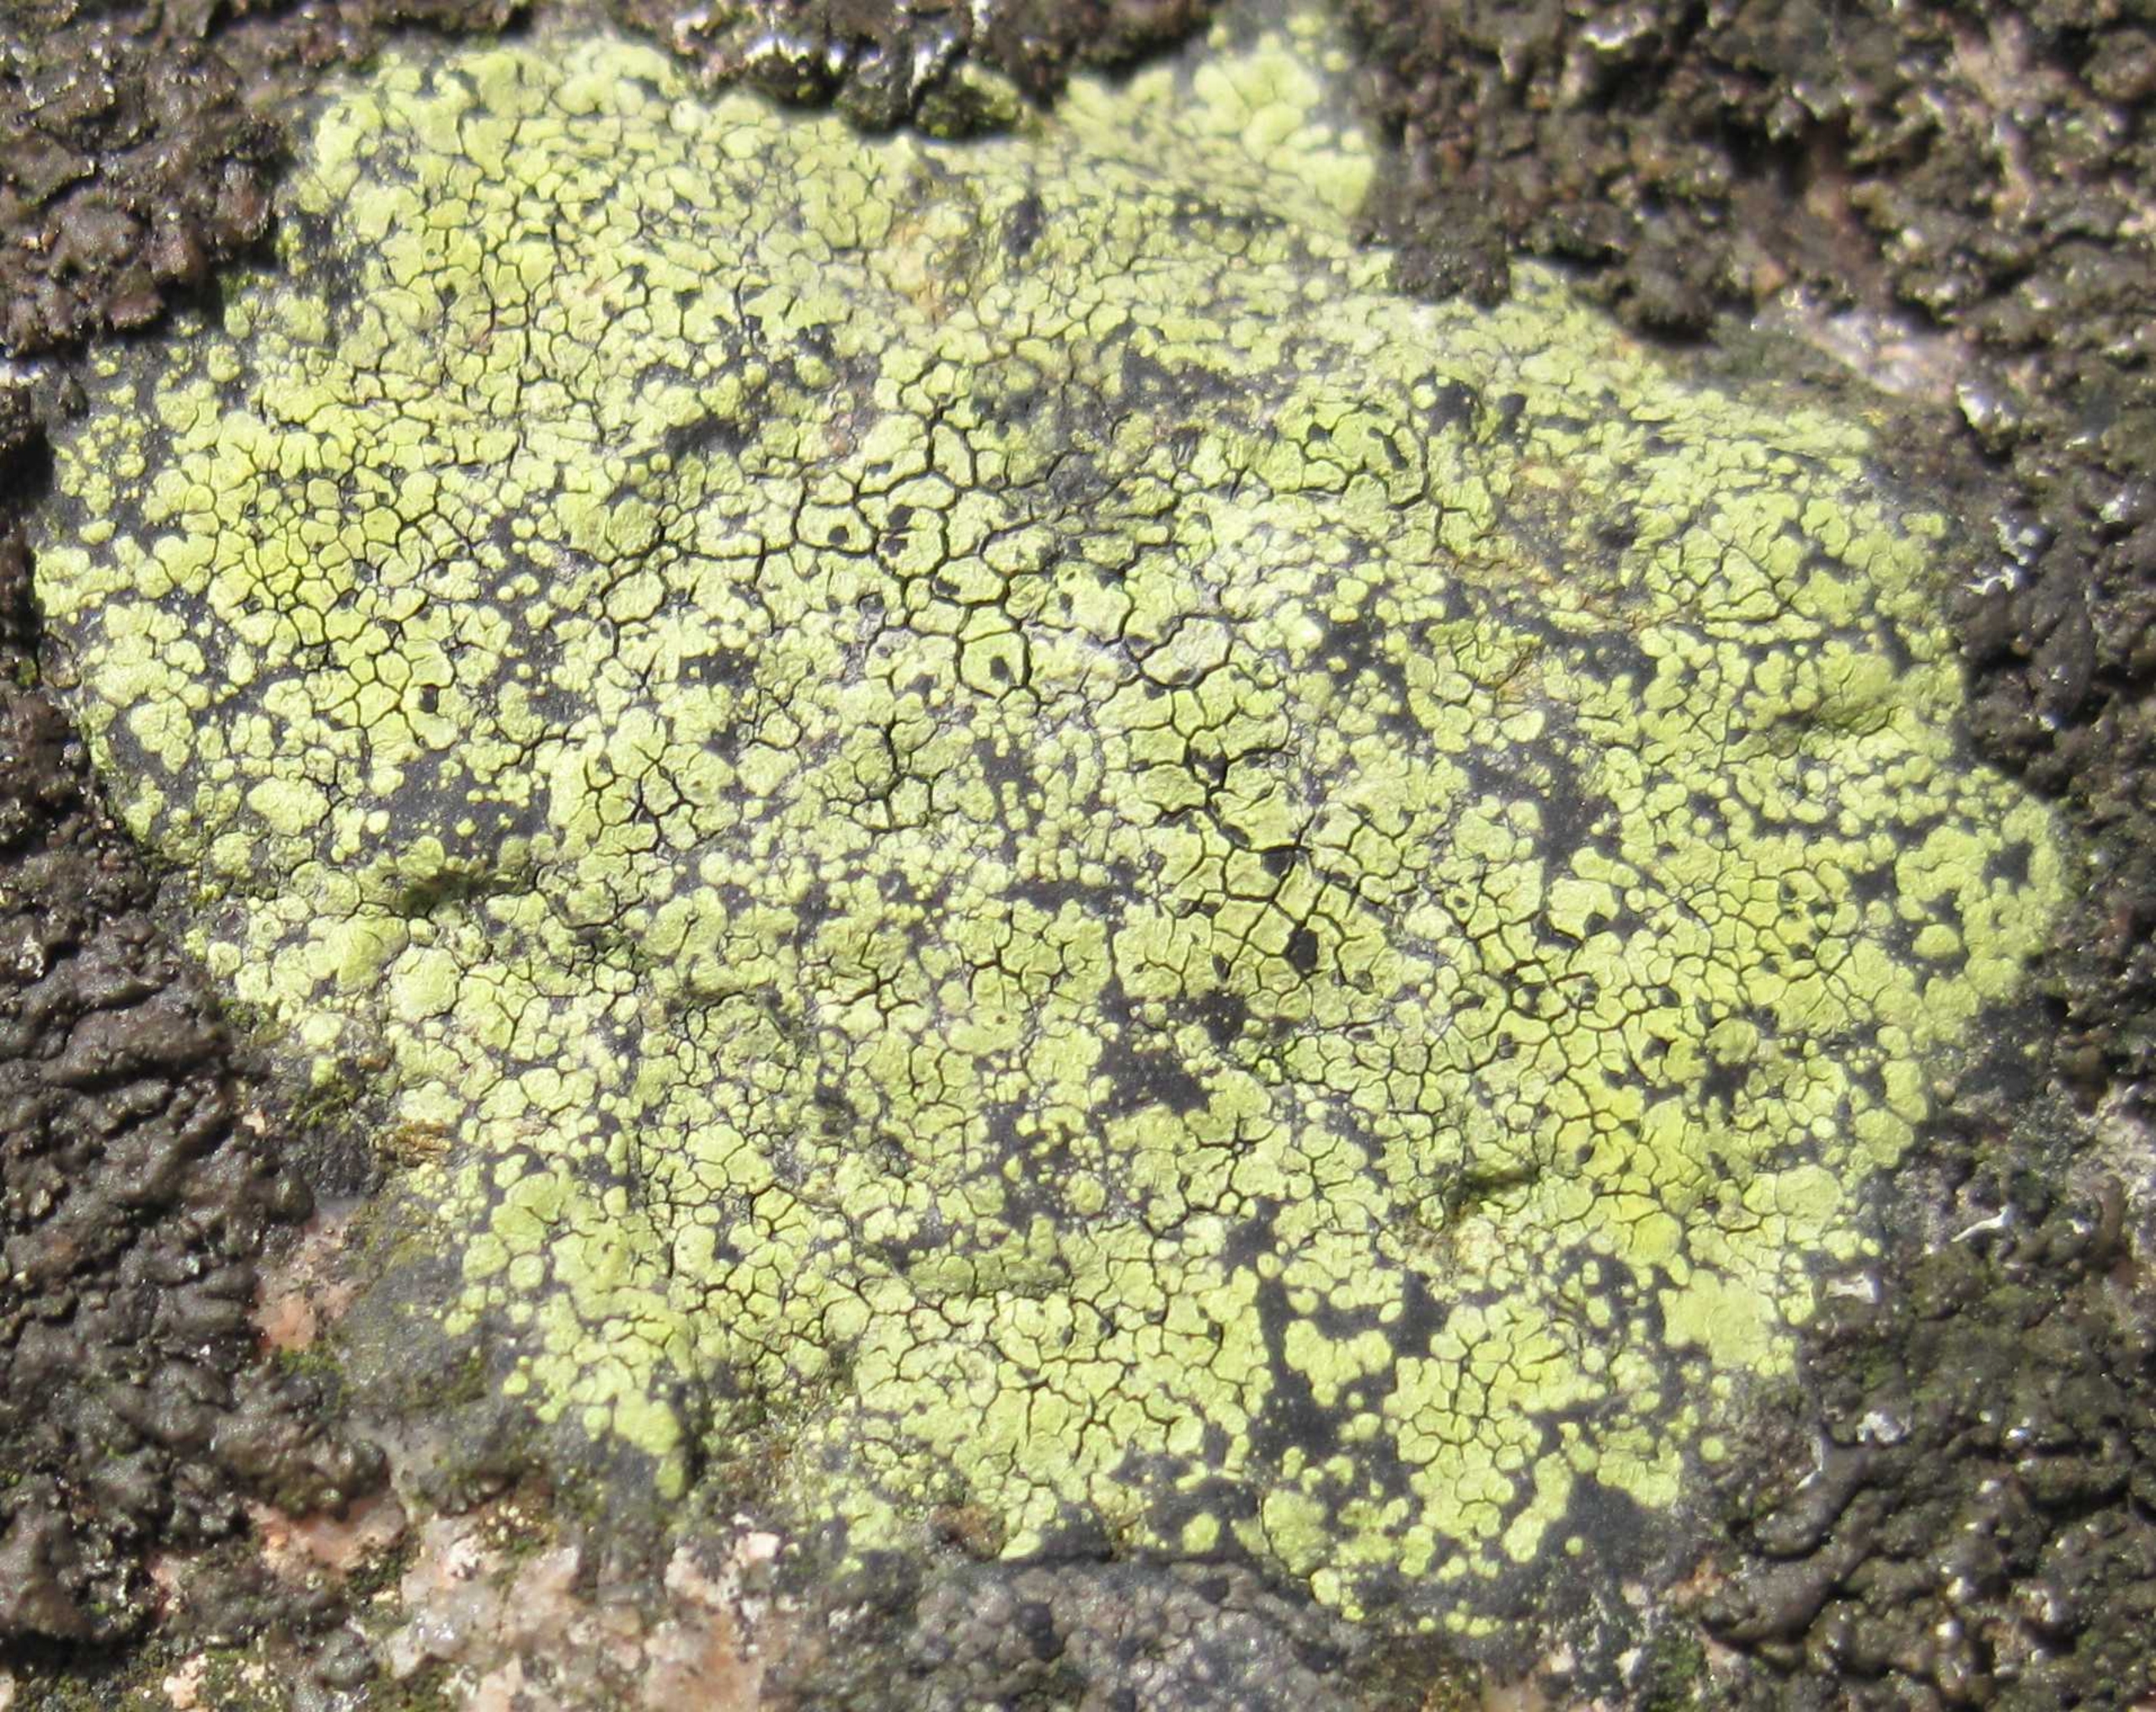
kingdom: Fungi
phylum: Ascomycota
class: Lecanoromycetes
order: Rhizocarpales
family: Rhizocarpaceae
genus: Rhizocarpon
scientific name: Rhizocarpon geographicum
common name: Gulgrøn landkortlav
